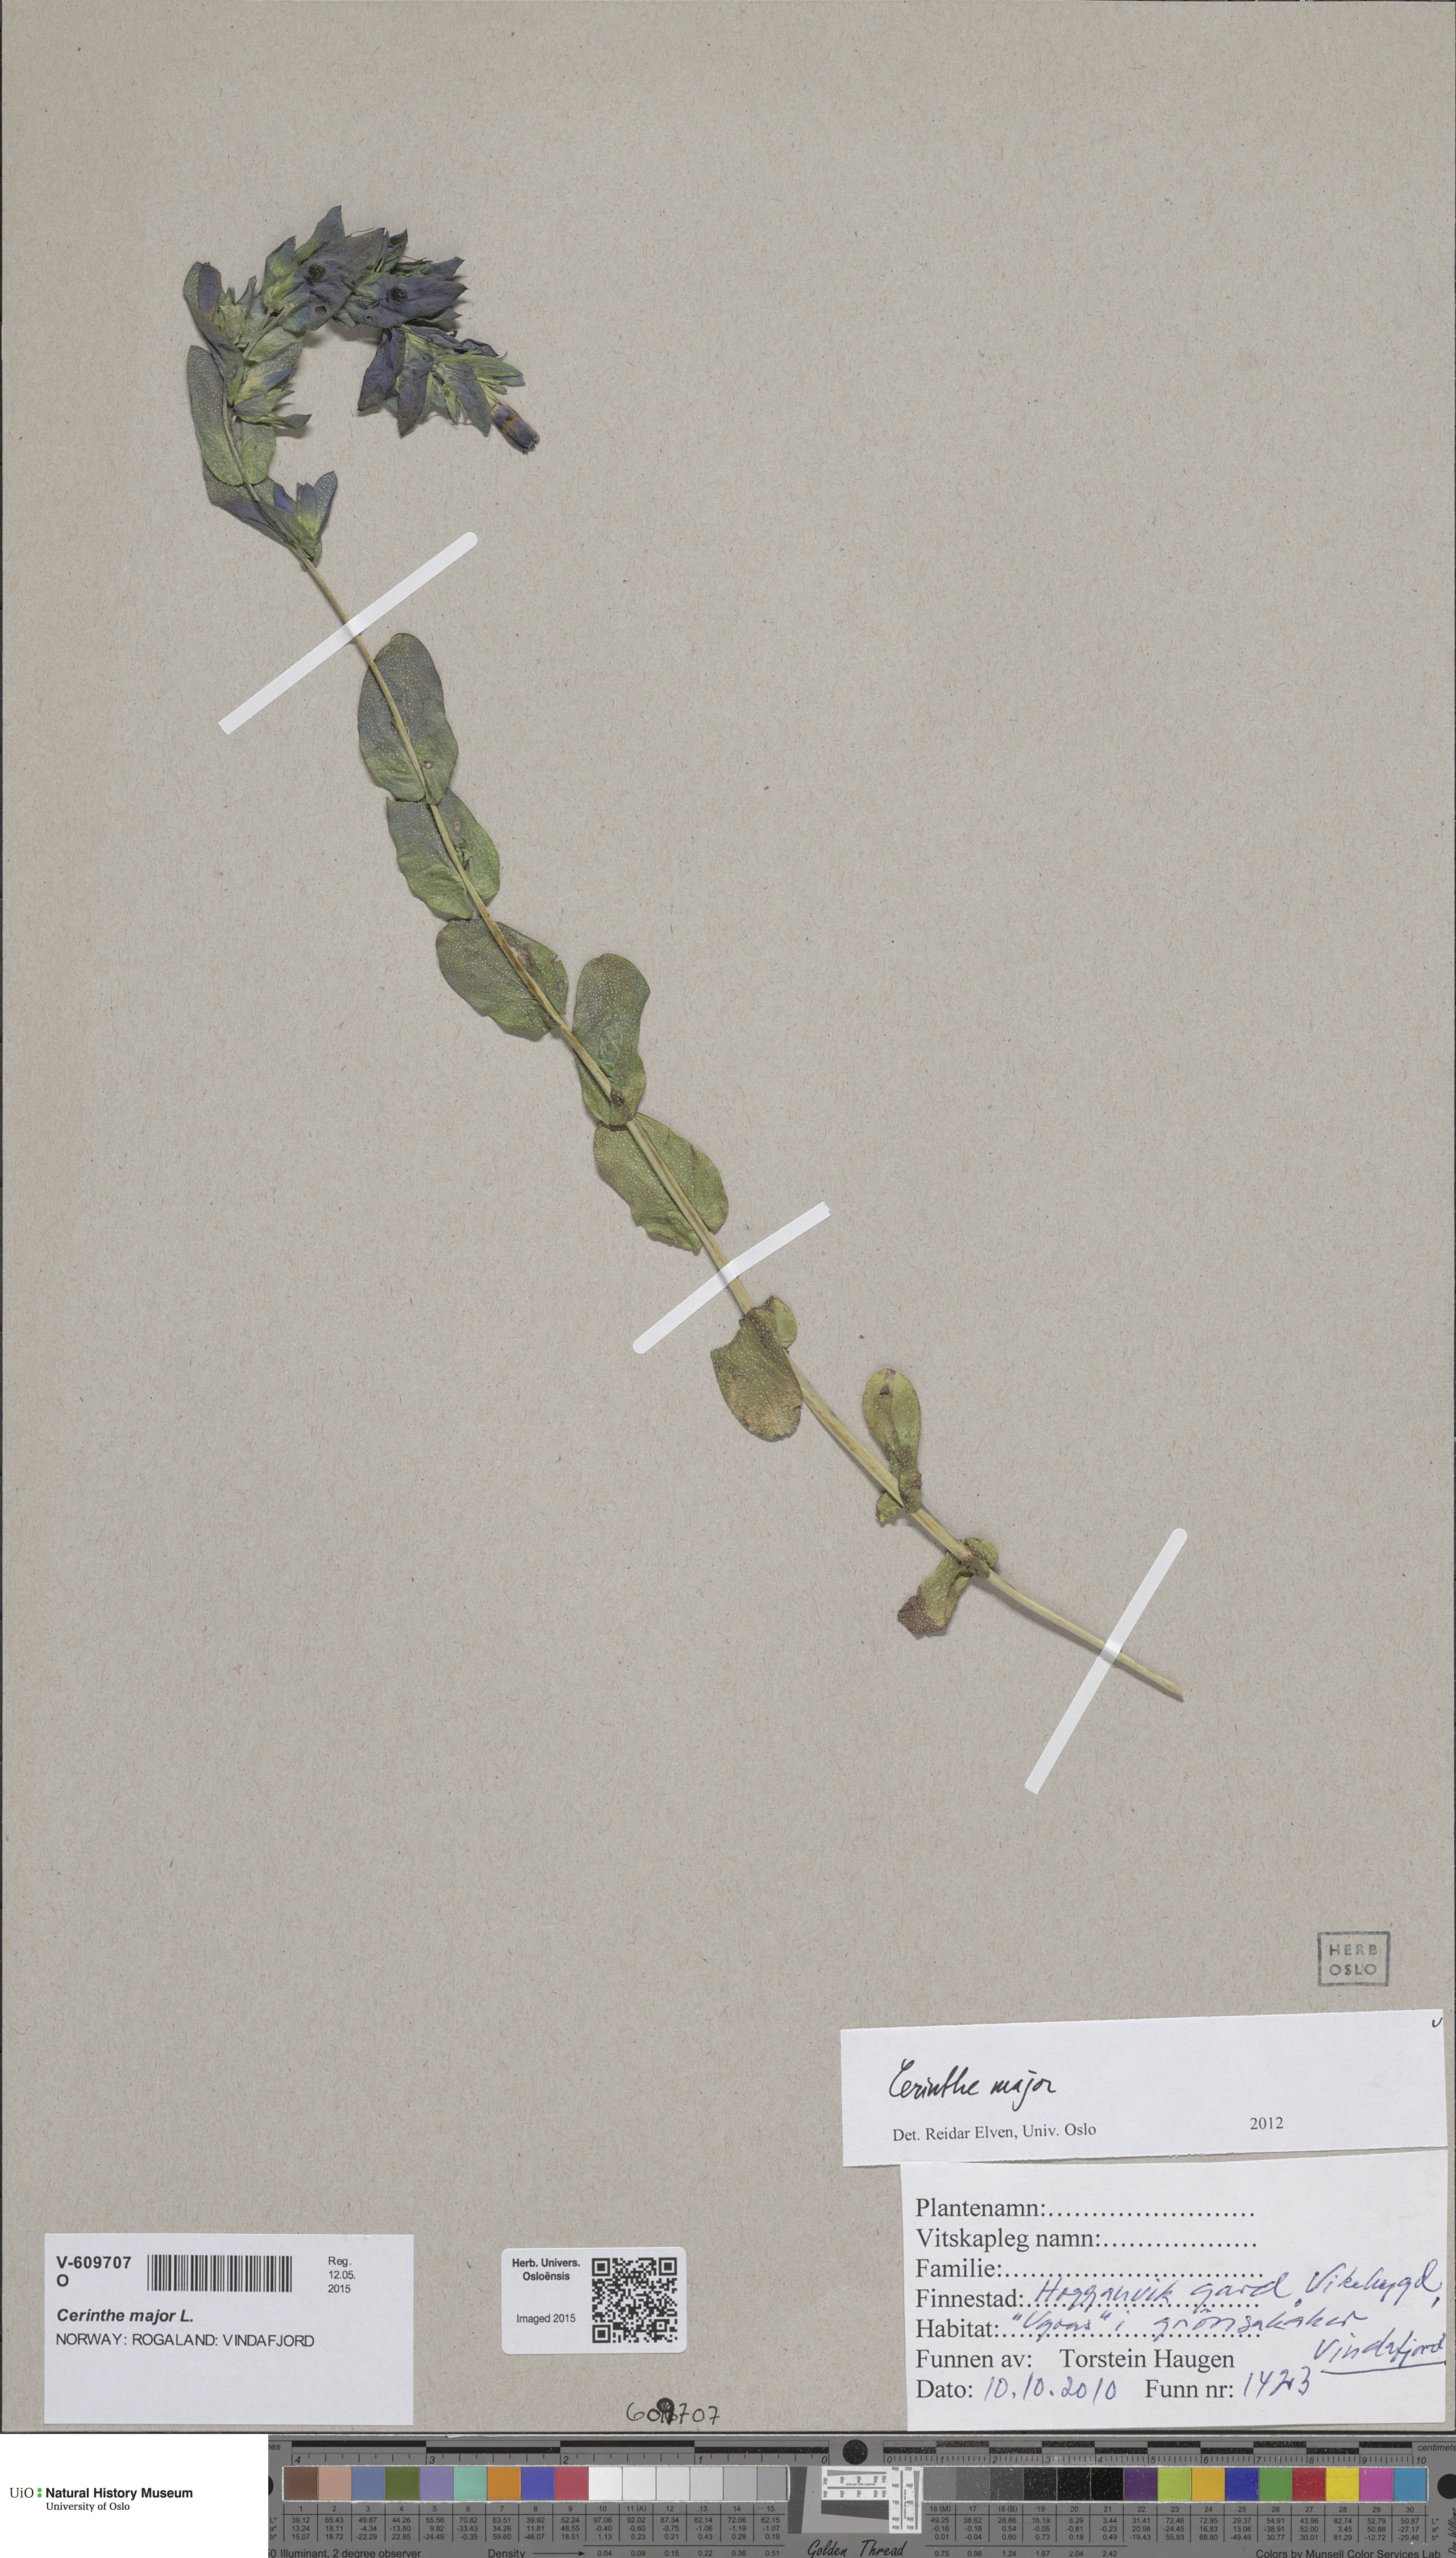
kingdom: Plantae
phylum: Tracheophyta
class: Magnoliopsida
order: Boraginales
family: Boraginaceae
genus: Cerinthe
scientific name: Cerinthe major
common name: Greater honeywort
